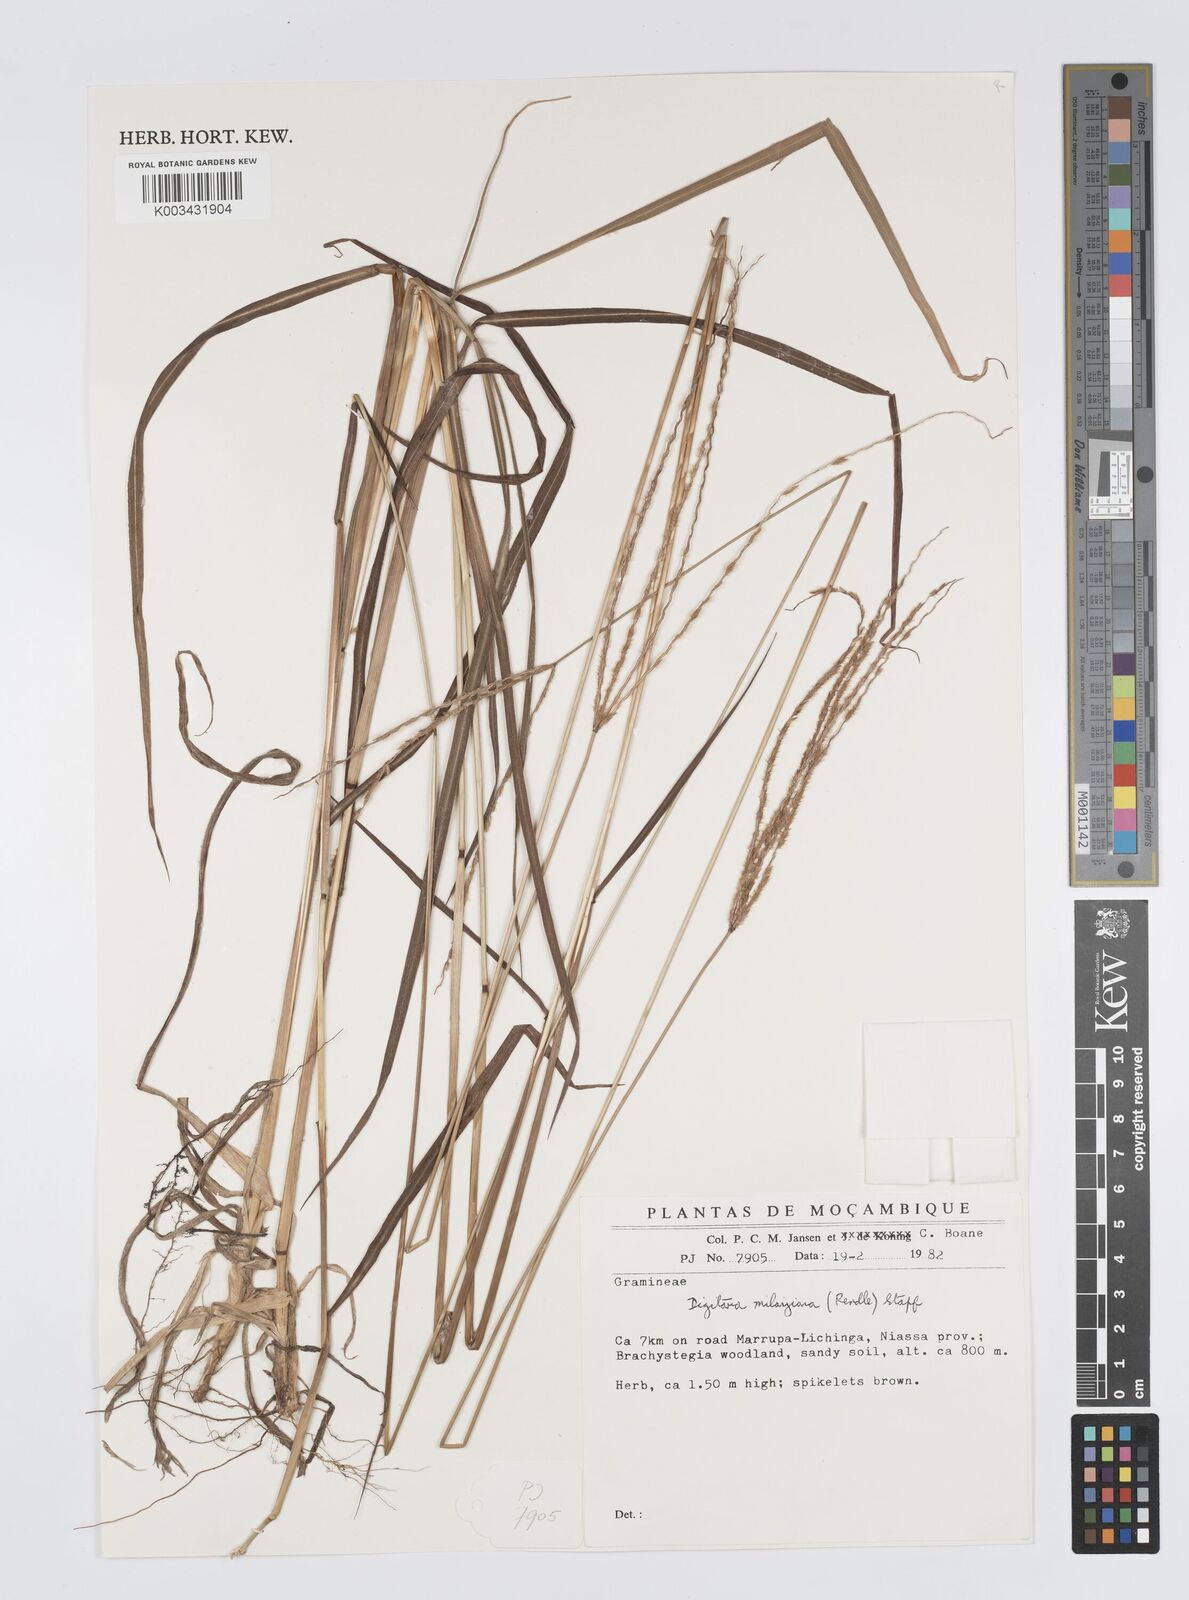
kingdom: Plantae
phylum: Tracheophyta
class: Liliopsida
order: Poales
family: Poaceae
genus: Digitaria
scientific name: Digitaria milanjiana
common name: Madagascar crabgrass
